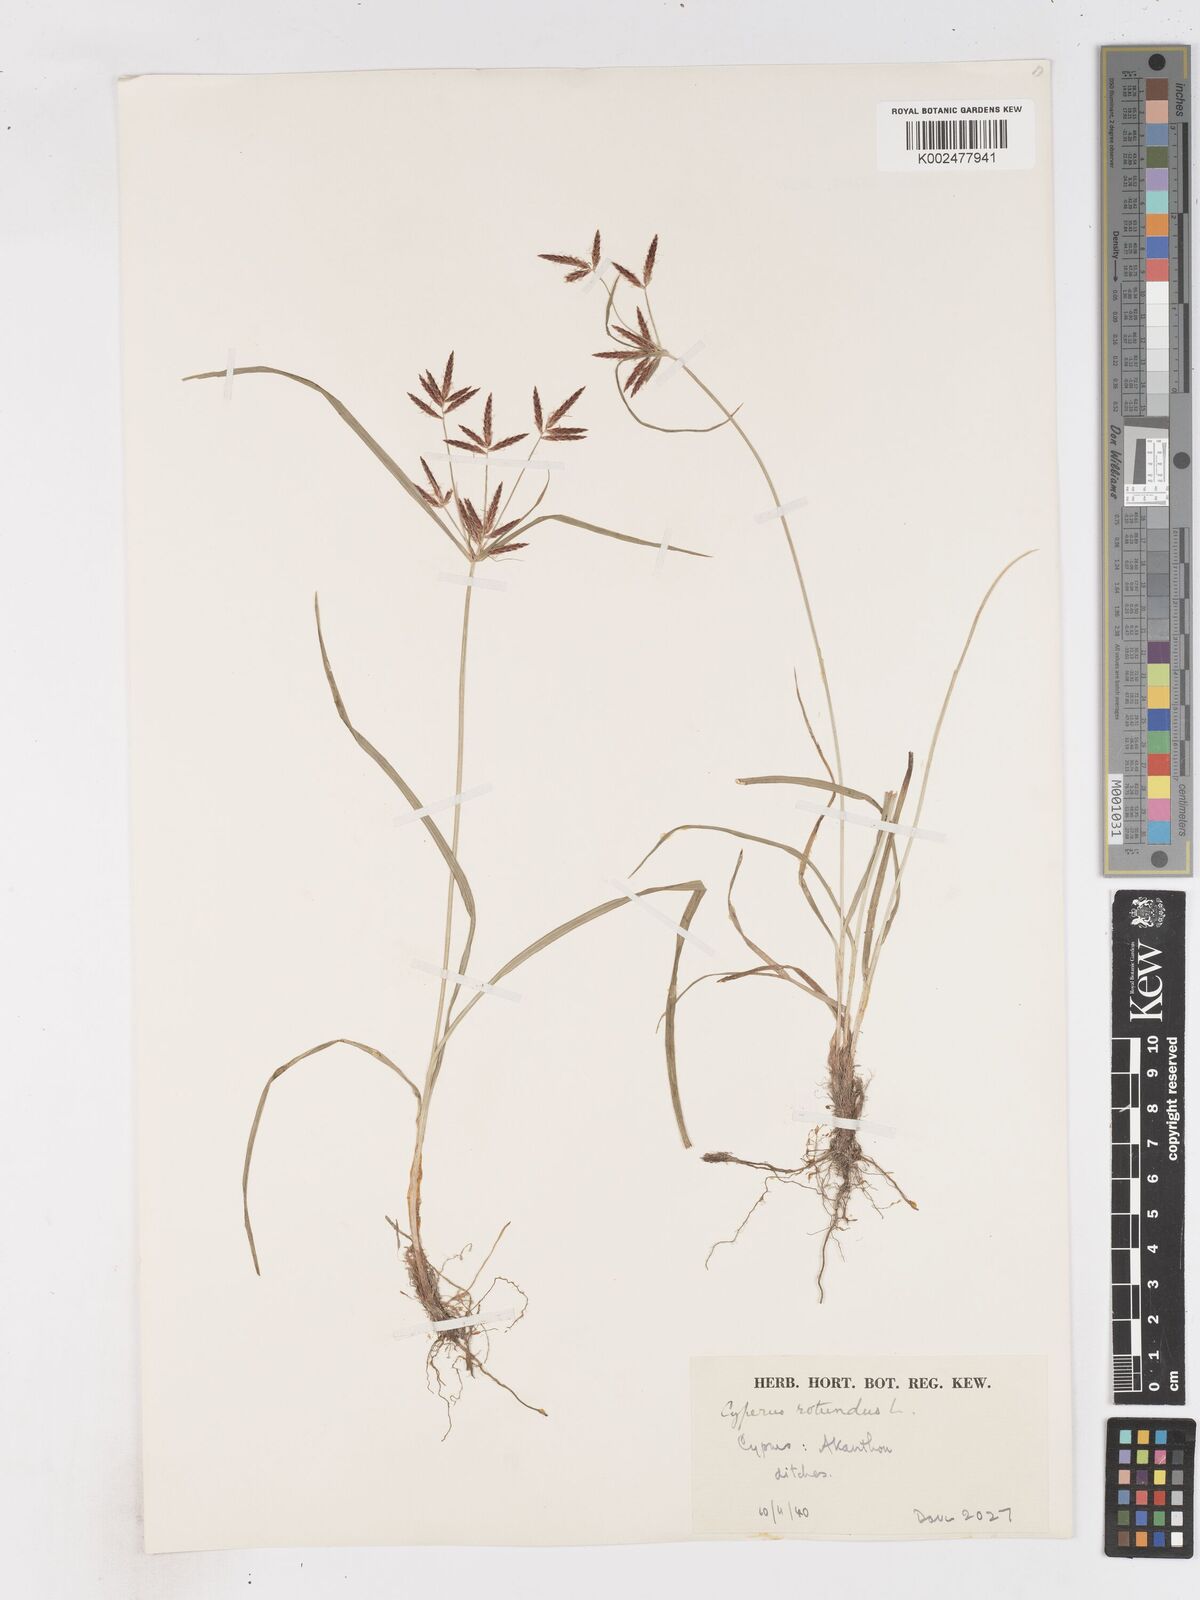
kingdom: Plantae
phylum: Tracheophyta
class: Liliopsida
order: Poales
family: Cyperaceae
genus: Cyperus
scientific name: Cyperus rotundus
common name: Nutgrass
